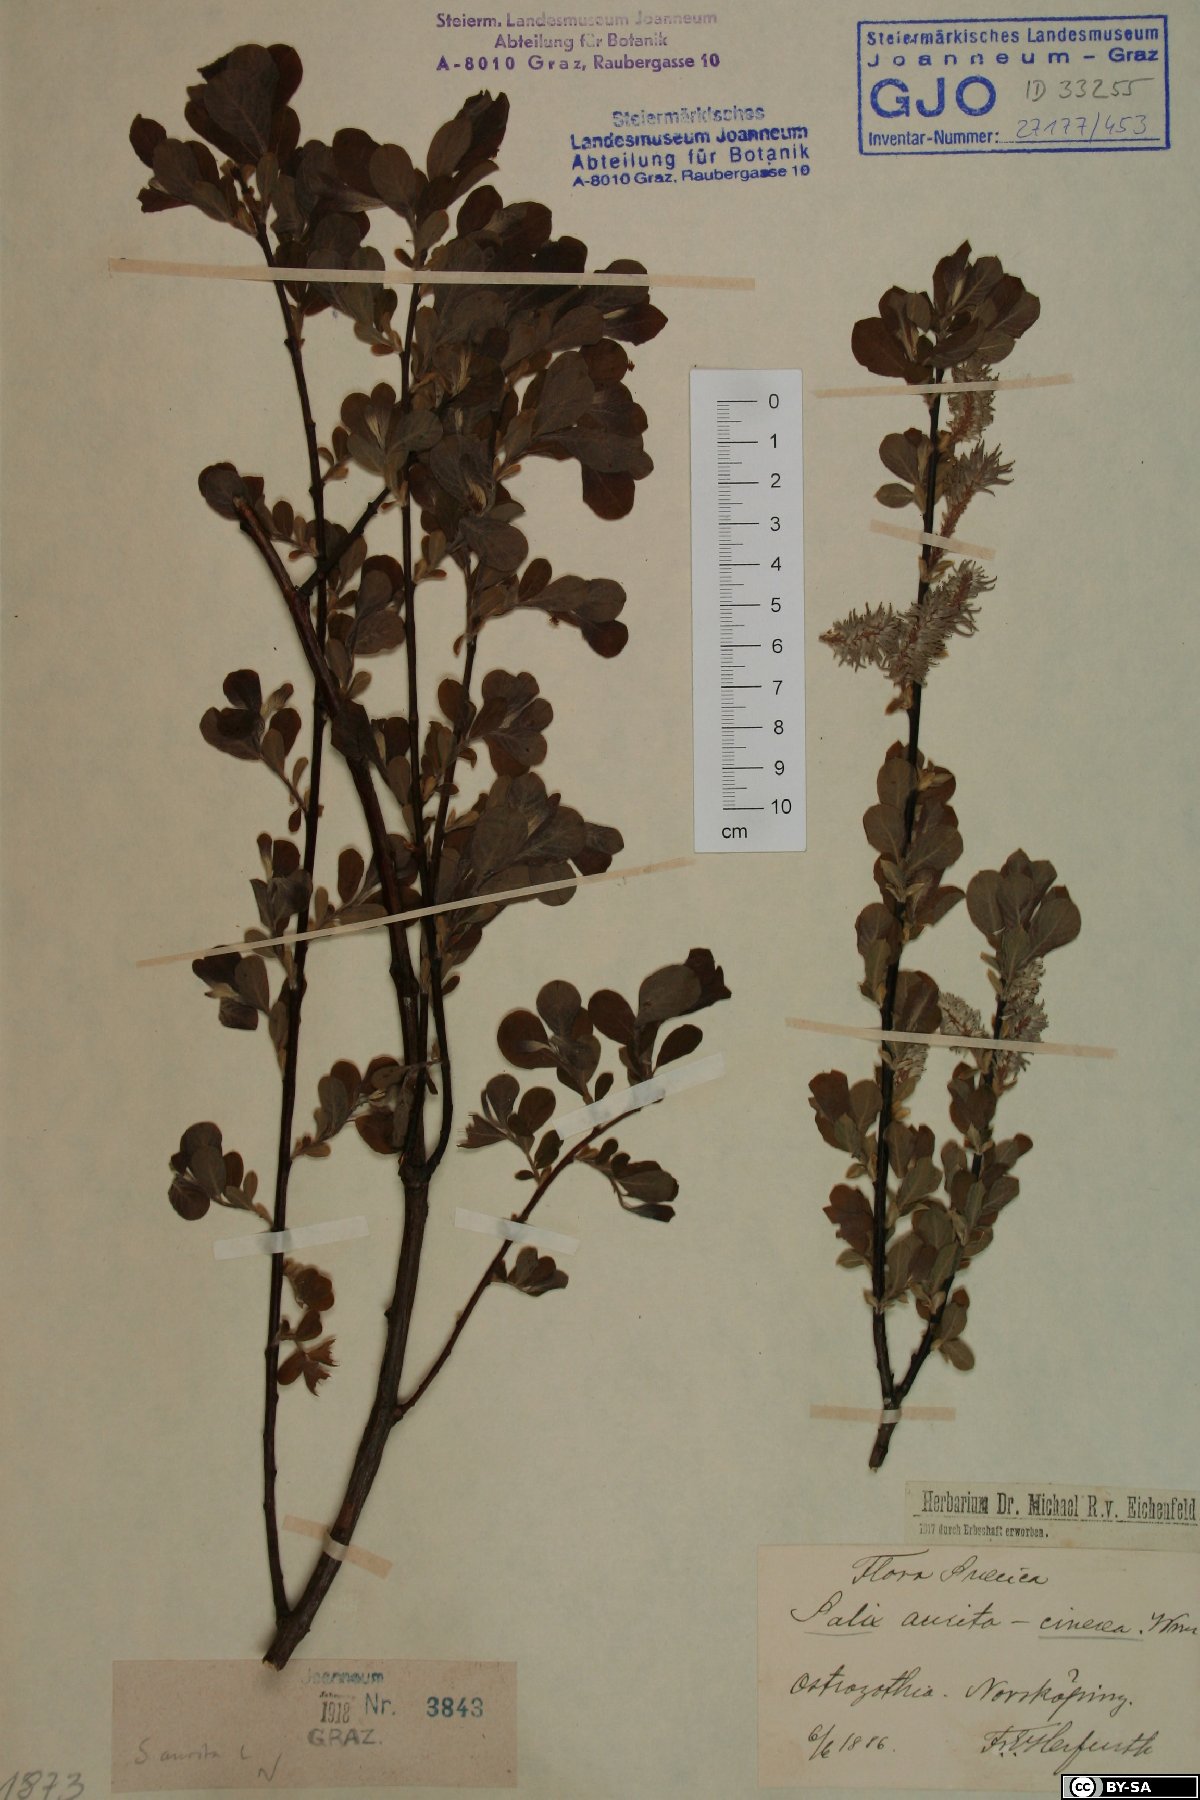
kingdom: Plantae
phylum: Tracheophyta
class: Magnoliopsida
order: Malpighiales
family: Salicaceae
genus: Salix
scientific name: Salix aurita
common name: Eared willow
